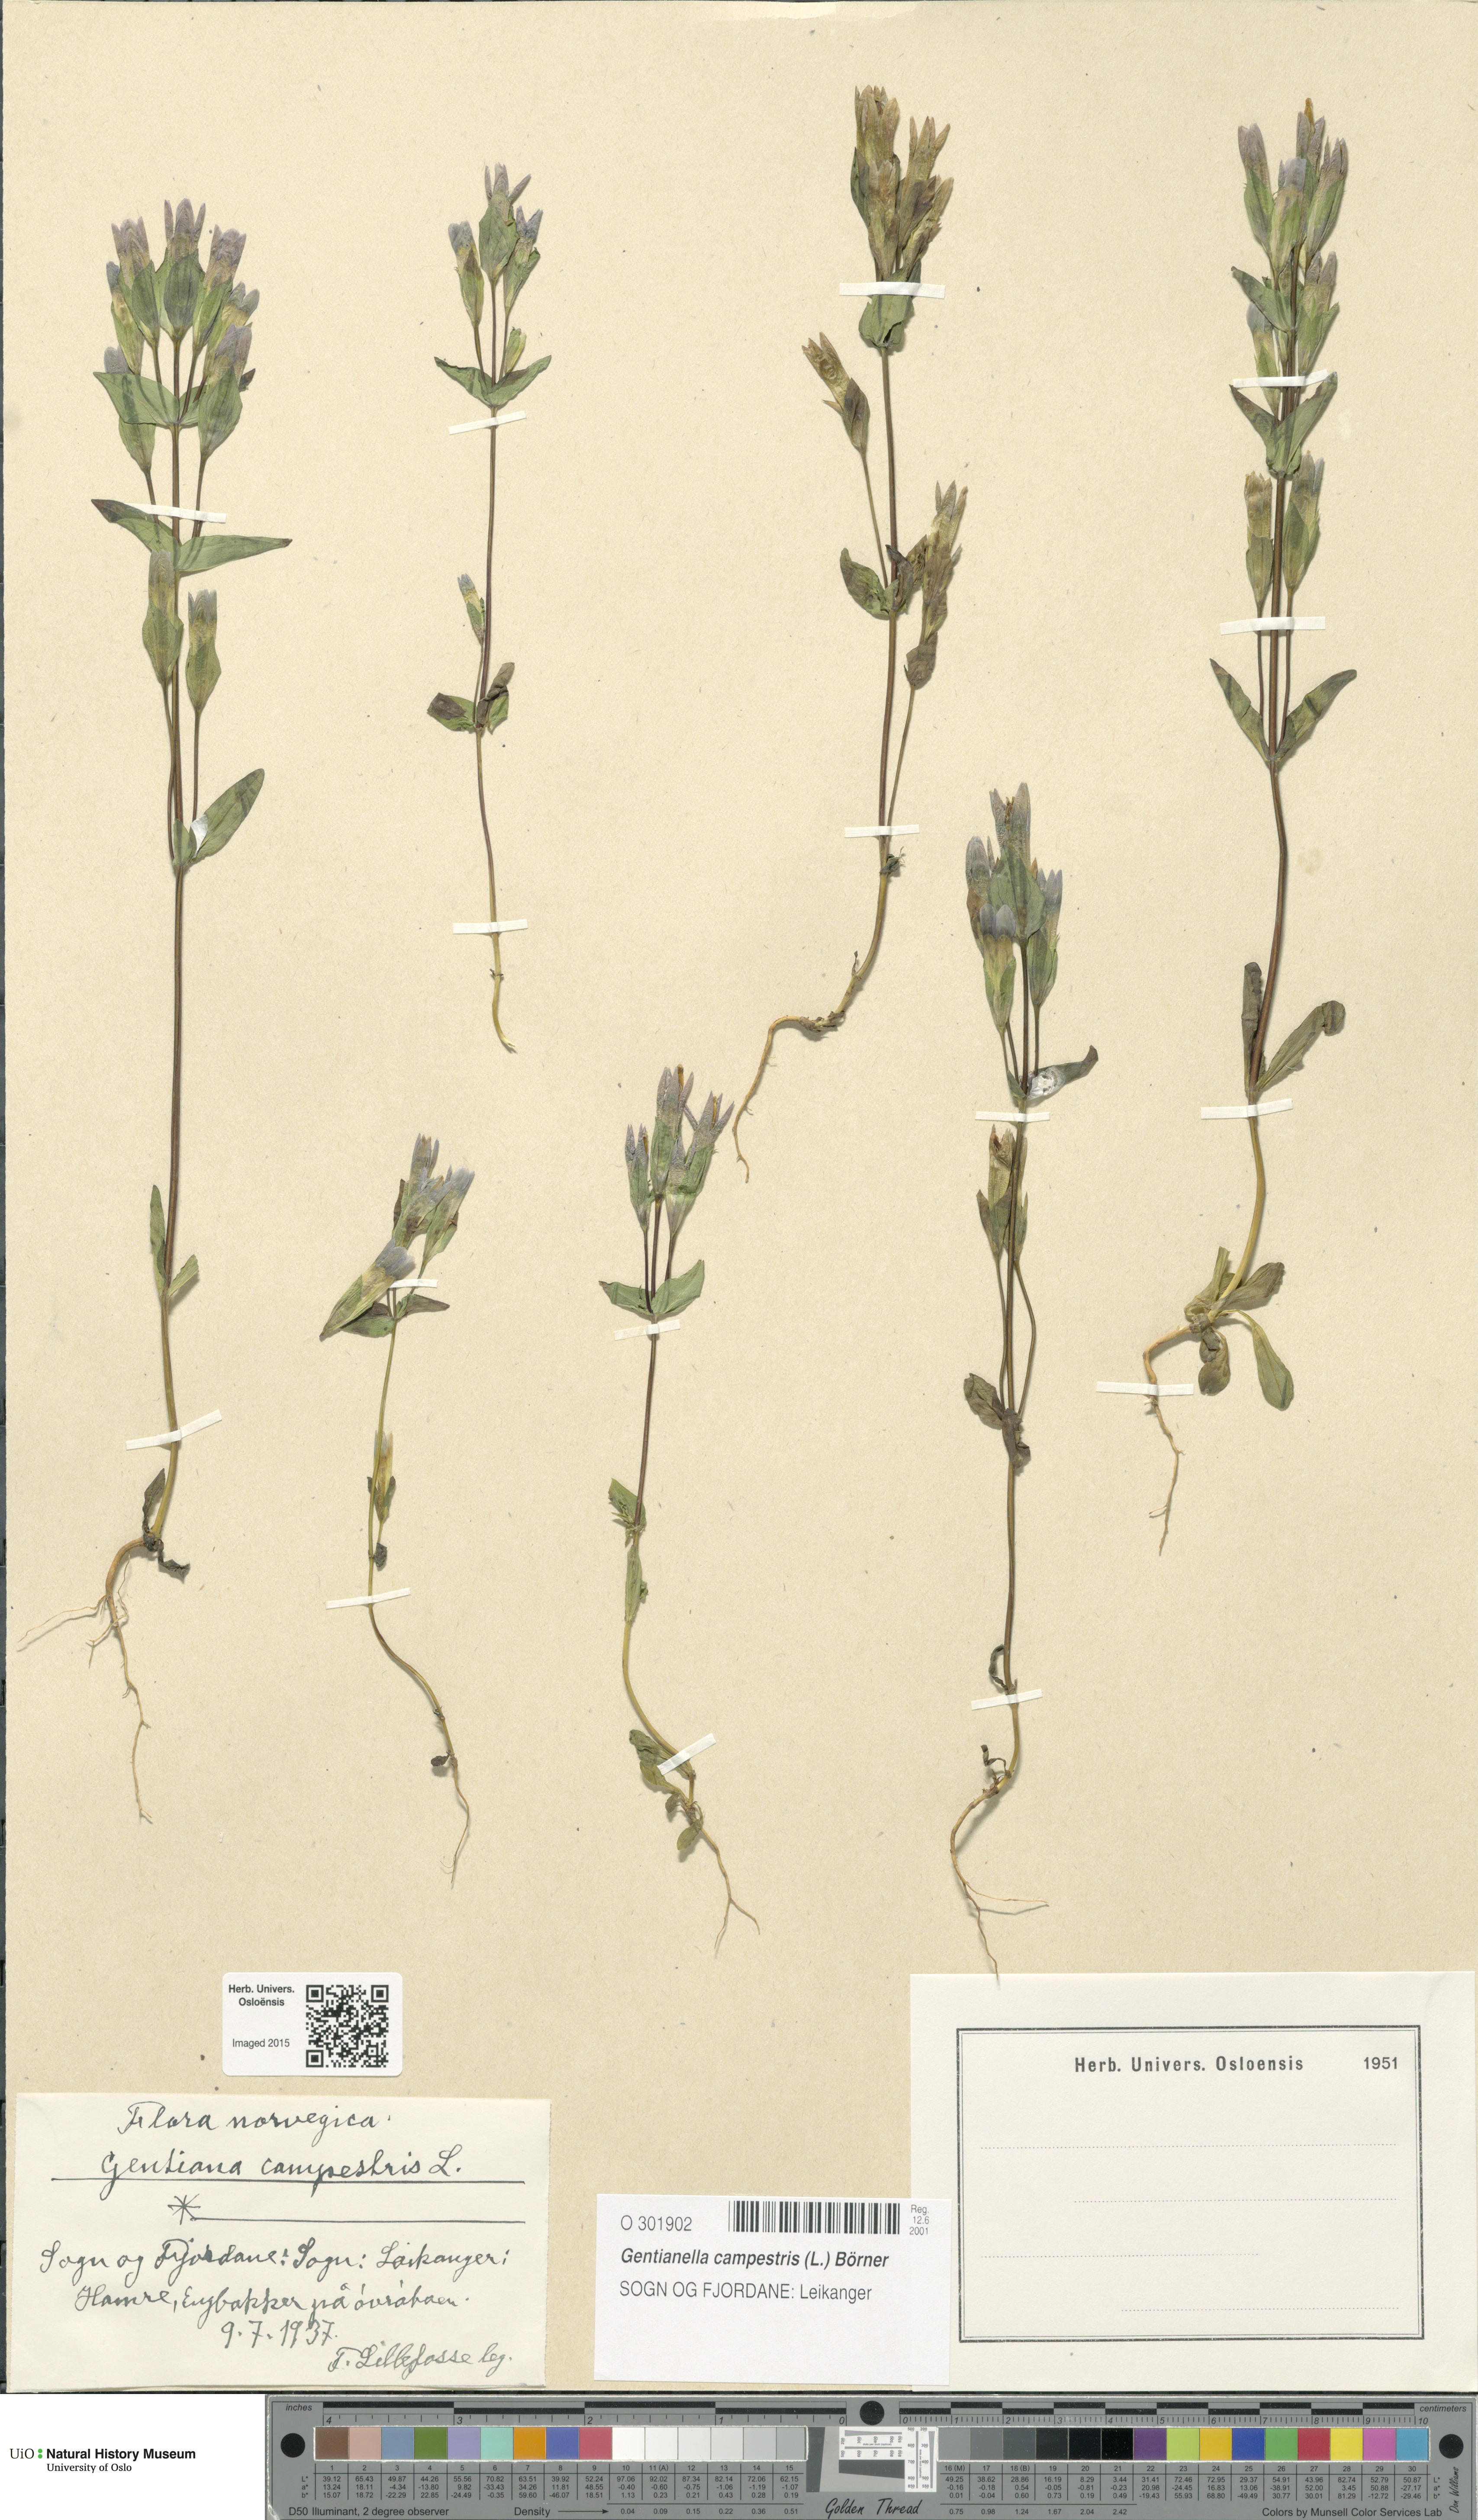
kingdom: Plantae
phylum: Tracheophyta
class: Magnoliopsida
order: Gentianales
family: Gentianaceae
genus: Gentianella
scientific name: Gentianella campestris
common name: Field gentian
